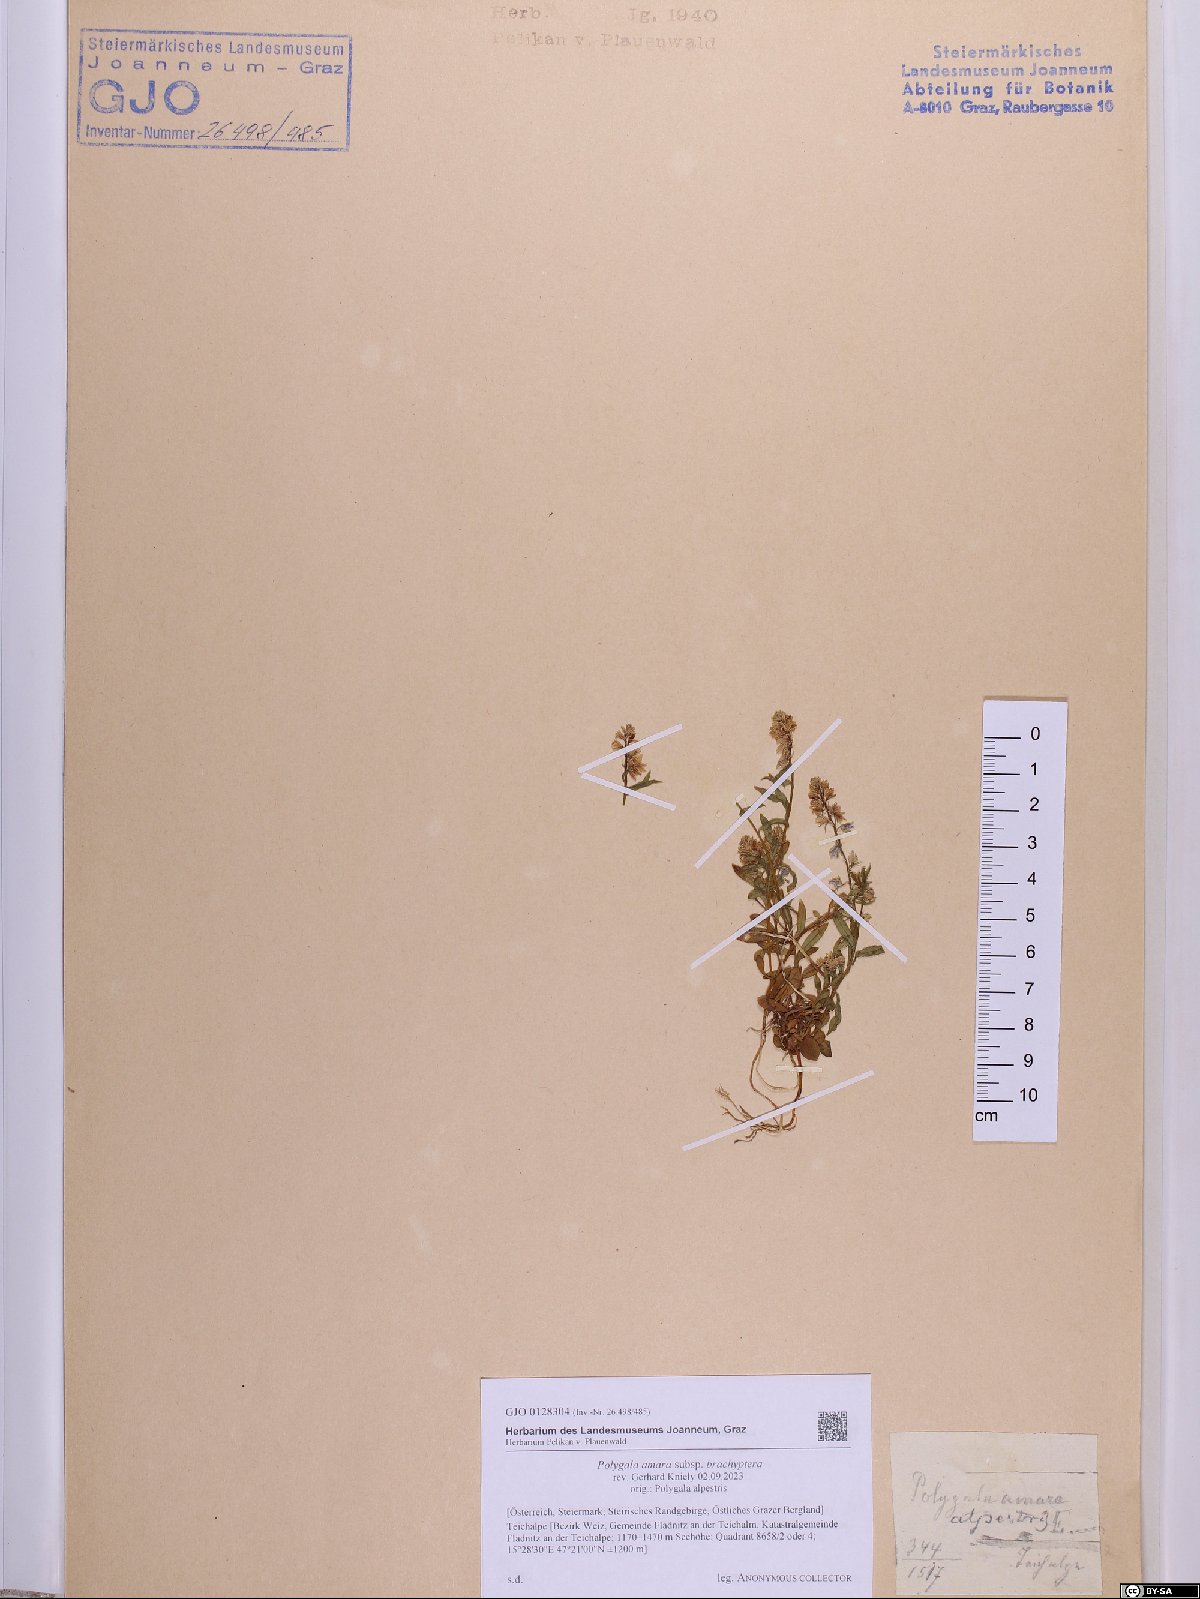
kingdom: Plantae
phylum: Tracheophyta
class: Magnoliopsida
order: Fabales
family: Polygalaceae
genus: Polygala
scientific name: Polygala amara
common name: Milkwort
